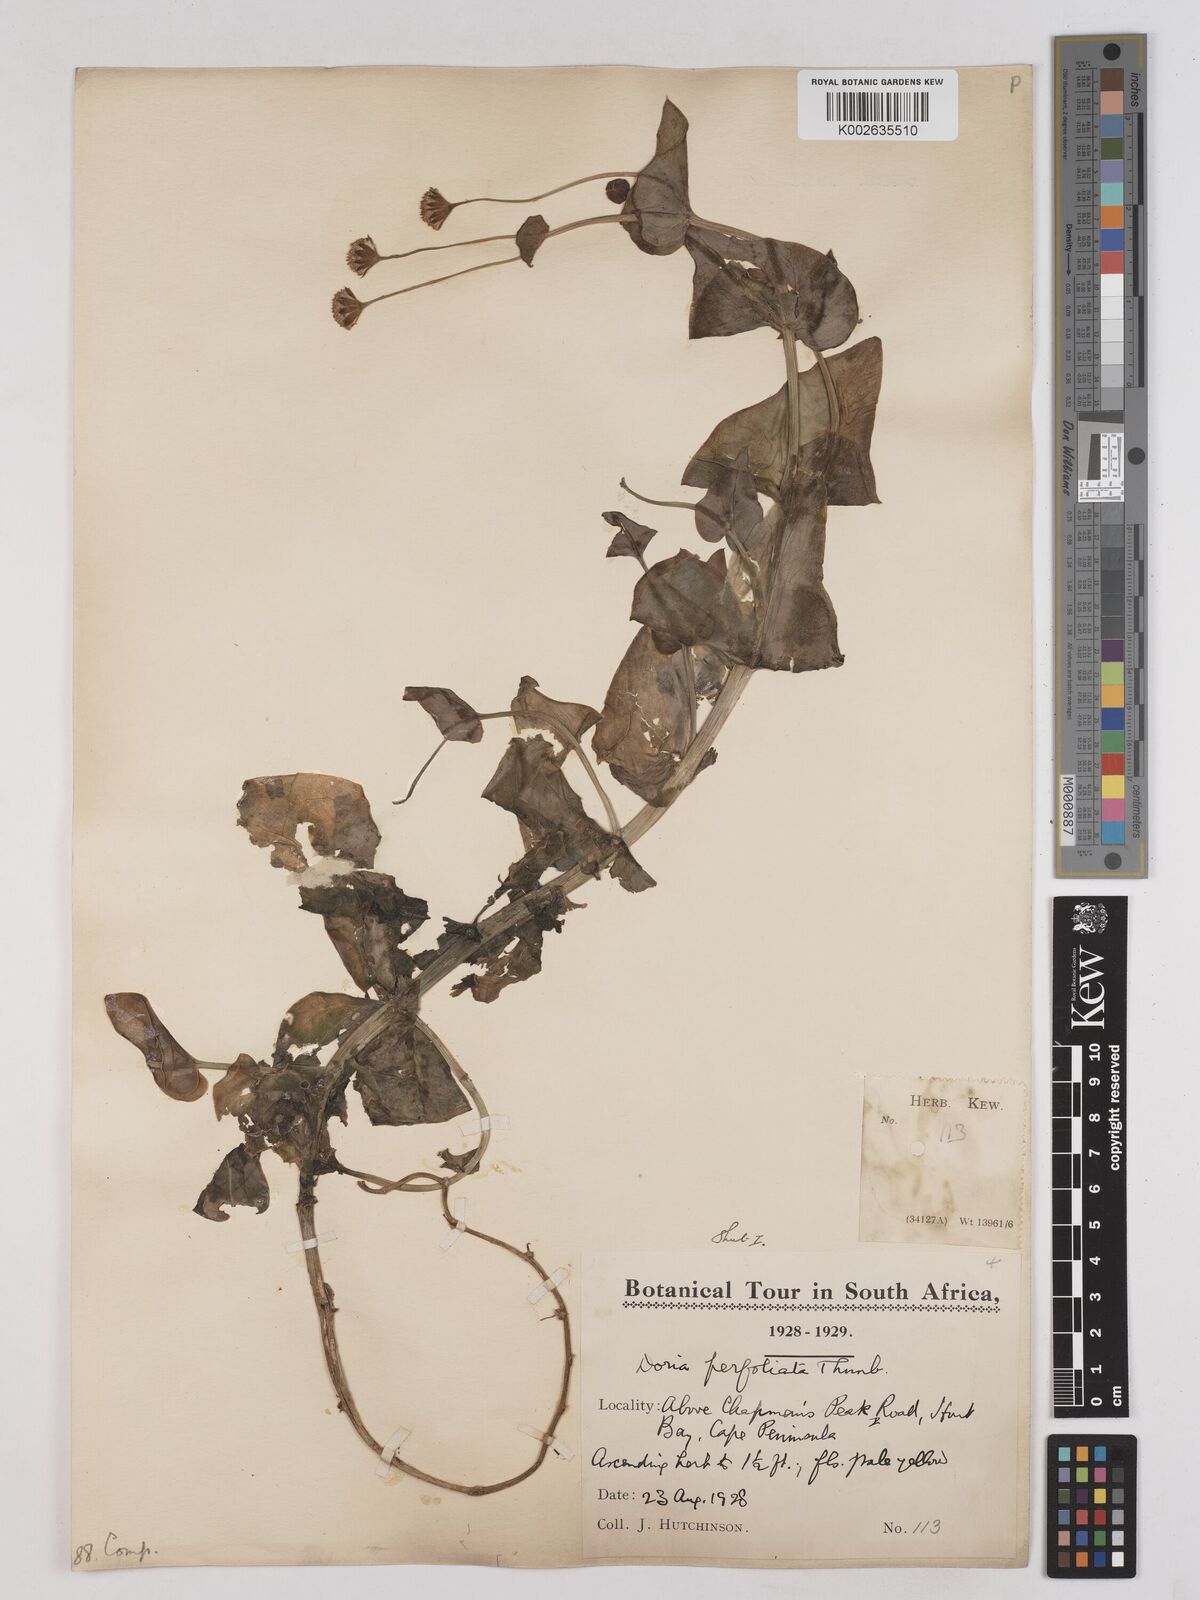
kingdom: Plantae
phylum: Tracheophyta
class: Magnoliopsida
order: Asterales
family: Asteraceae
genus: Othonna
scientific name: Othonna perfoliata
